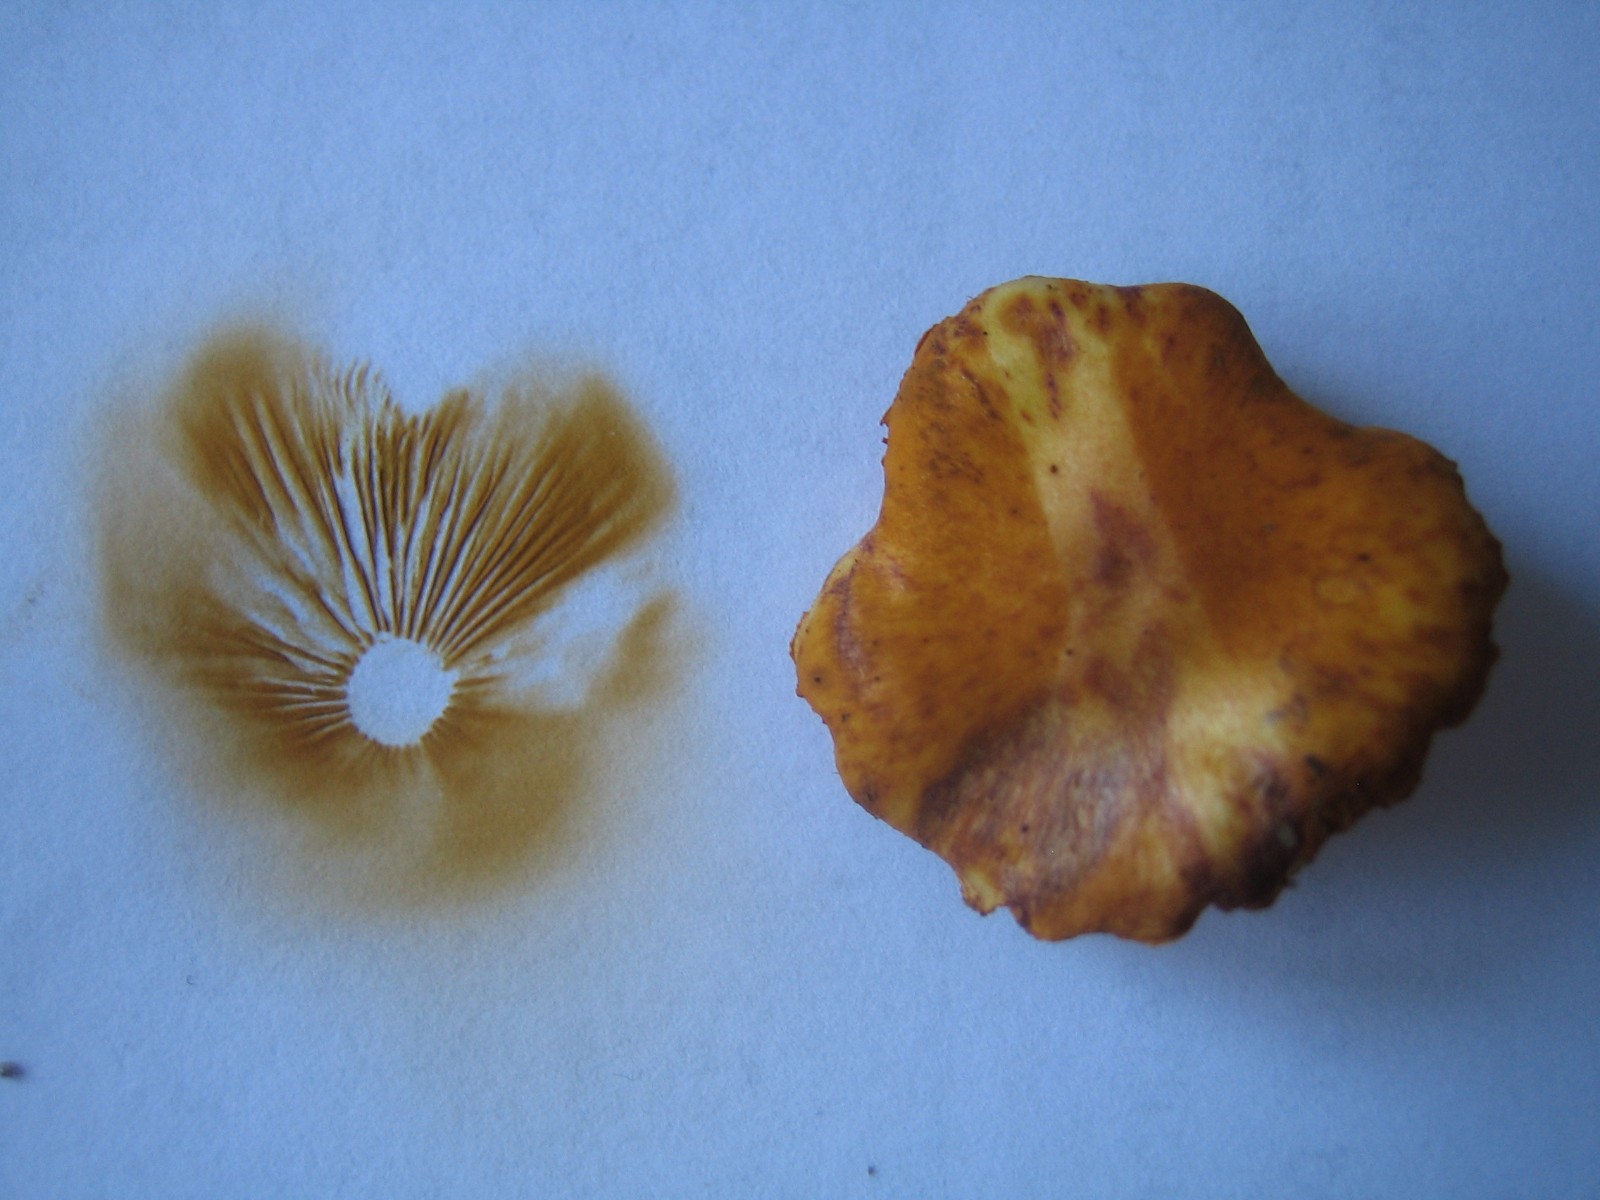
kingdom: Fungi
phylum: Basidiomycota
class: Agaricomycetes
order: Agaricales
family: Hymenogastraceae
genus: Gymnopilus
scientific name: Gymnopilus penetrans
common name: plettet flammehat
